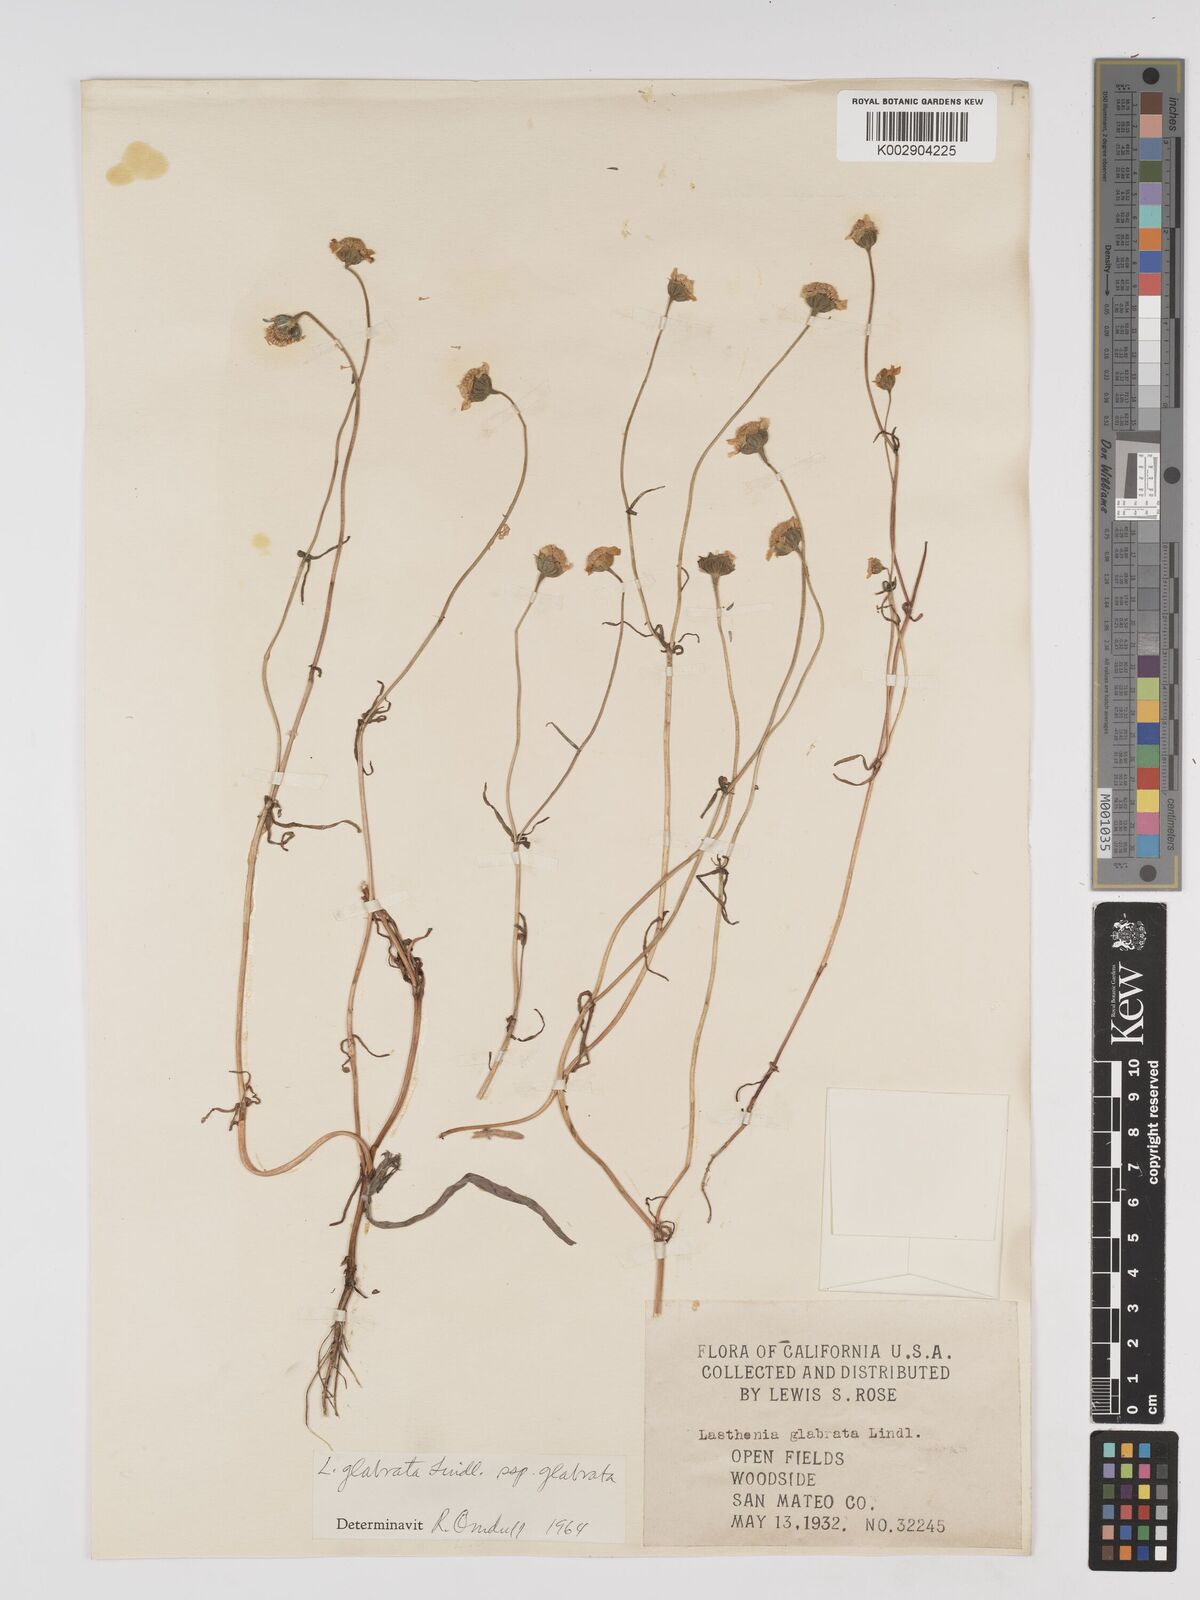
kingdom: Plantae
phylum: Tracheophyta
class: Magnoliopsida
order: Asterales
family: Asteraceae
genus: Lasthenia
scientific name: Lasthenia glabrata
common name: Yellow-ray lasthenia
